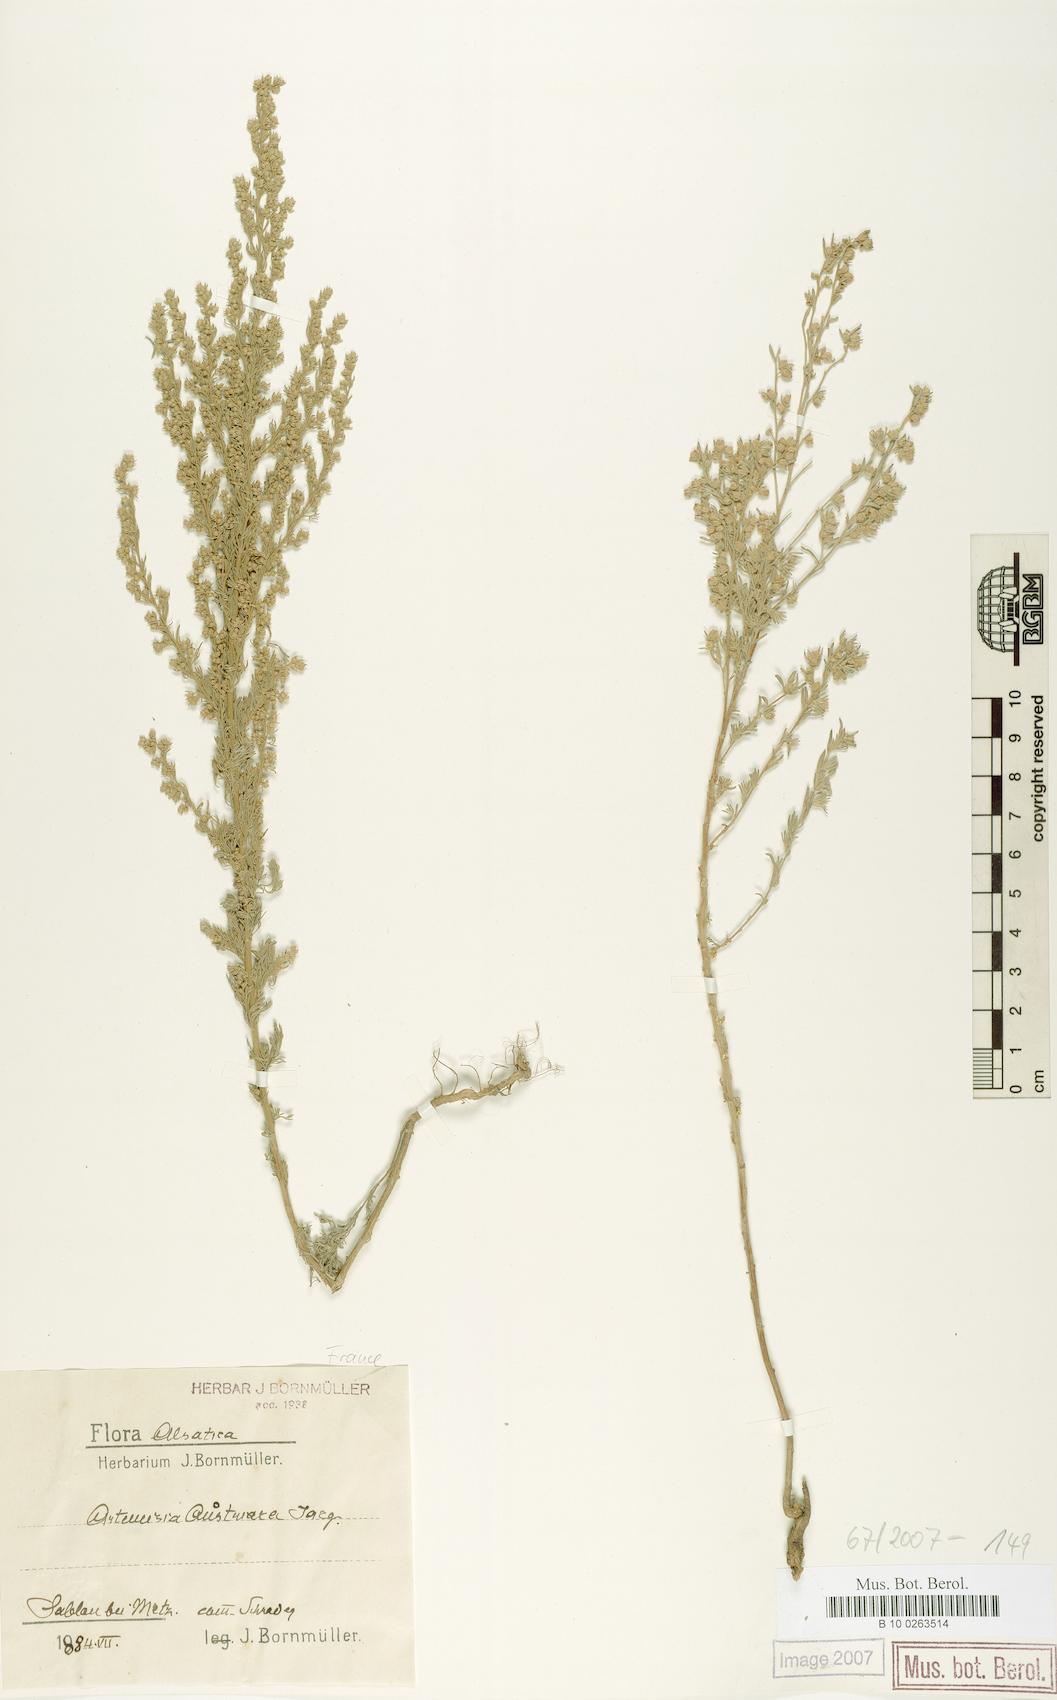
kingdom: Plantae
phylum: Tracheophyta
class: Magnoliopsida
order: Asterales
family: Asteraceae
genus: Artemisia
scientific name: Artemisia
